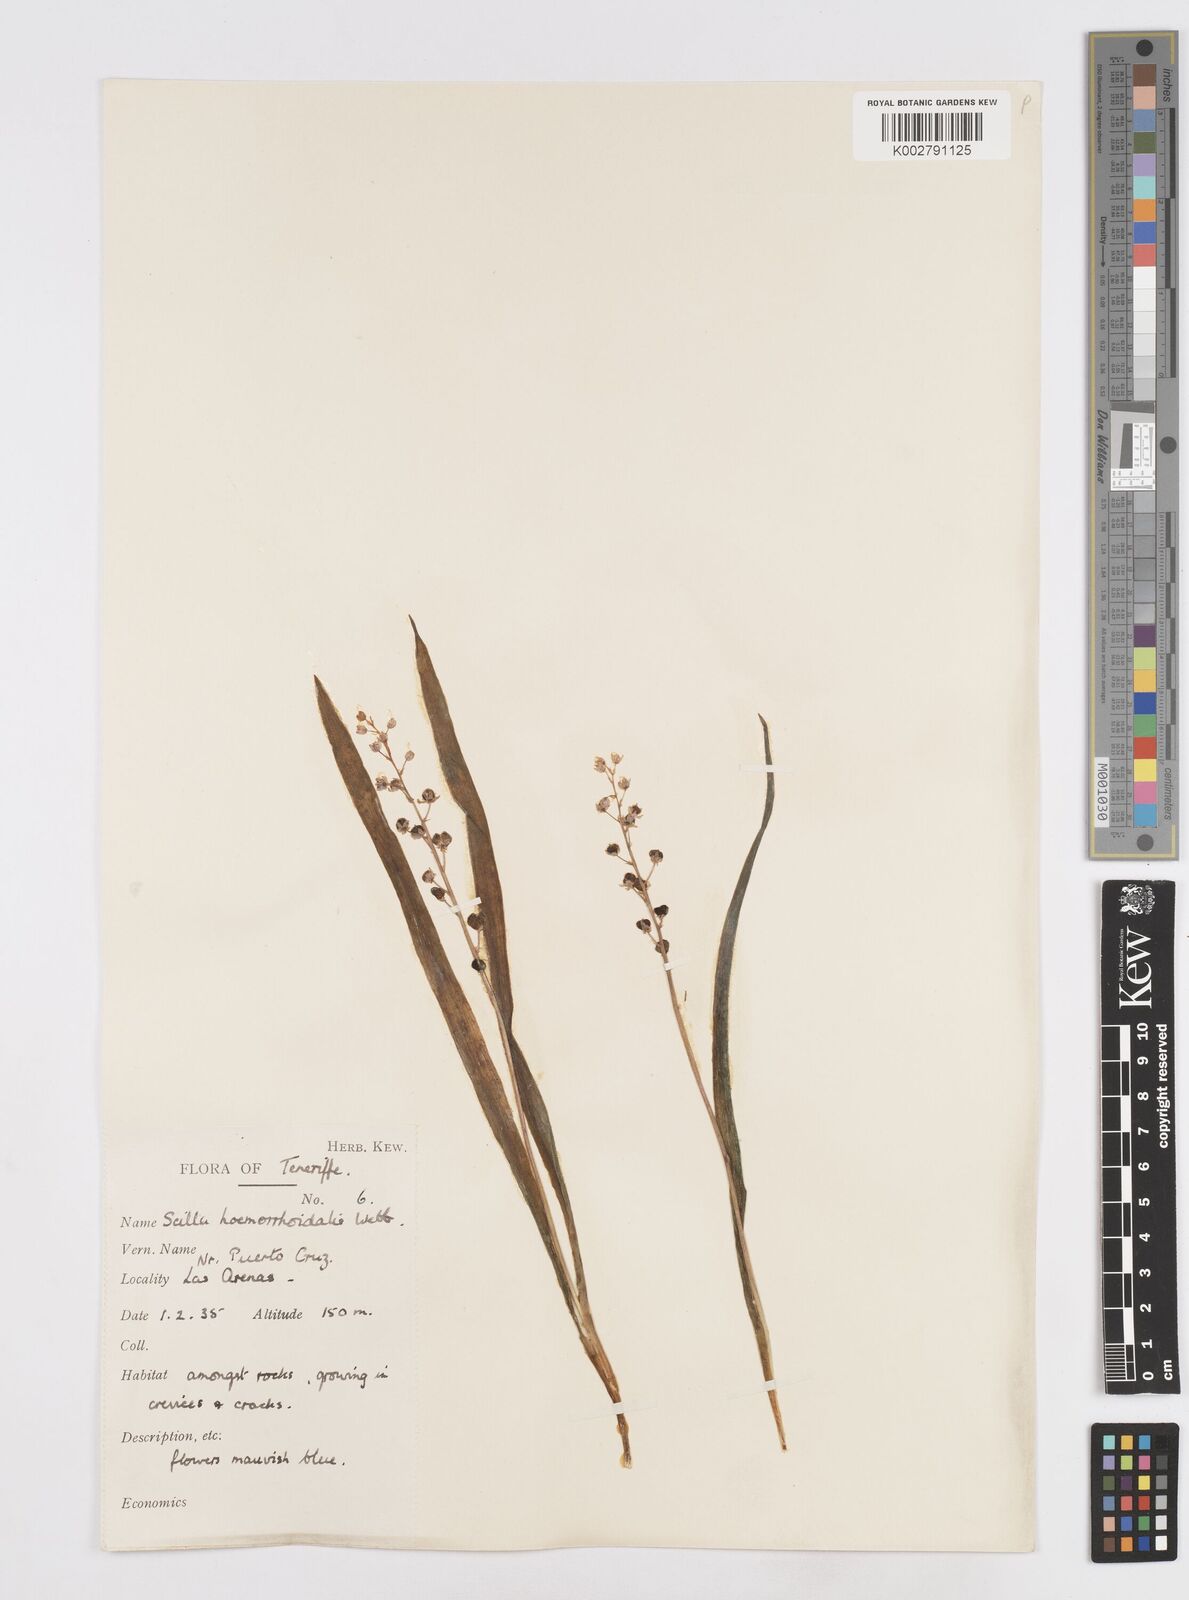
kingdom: Plantae
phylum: Tracheophyta
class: Liliopsida
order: Asparagales
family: Asparagaceae
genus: Scilla
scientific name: Scilla haemorrhoidalis
